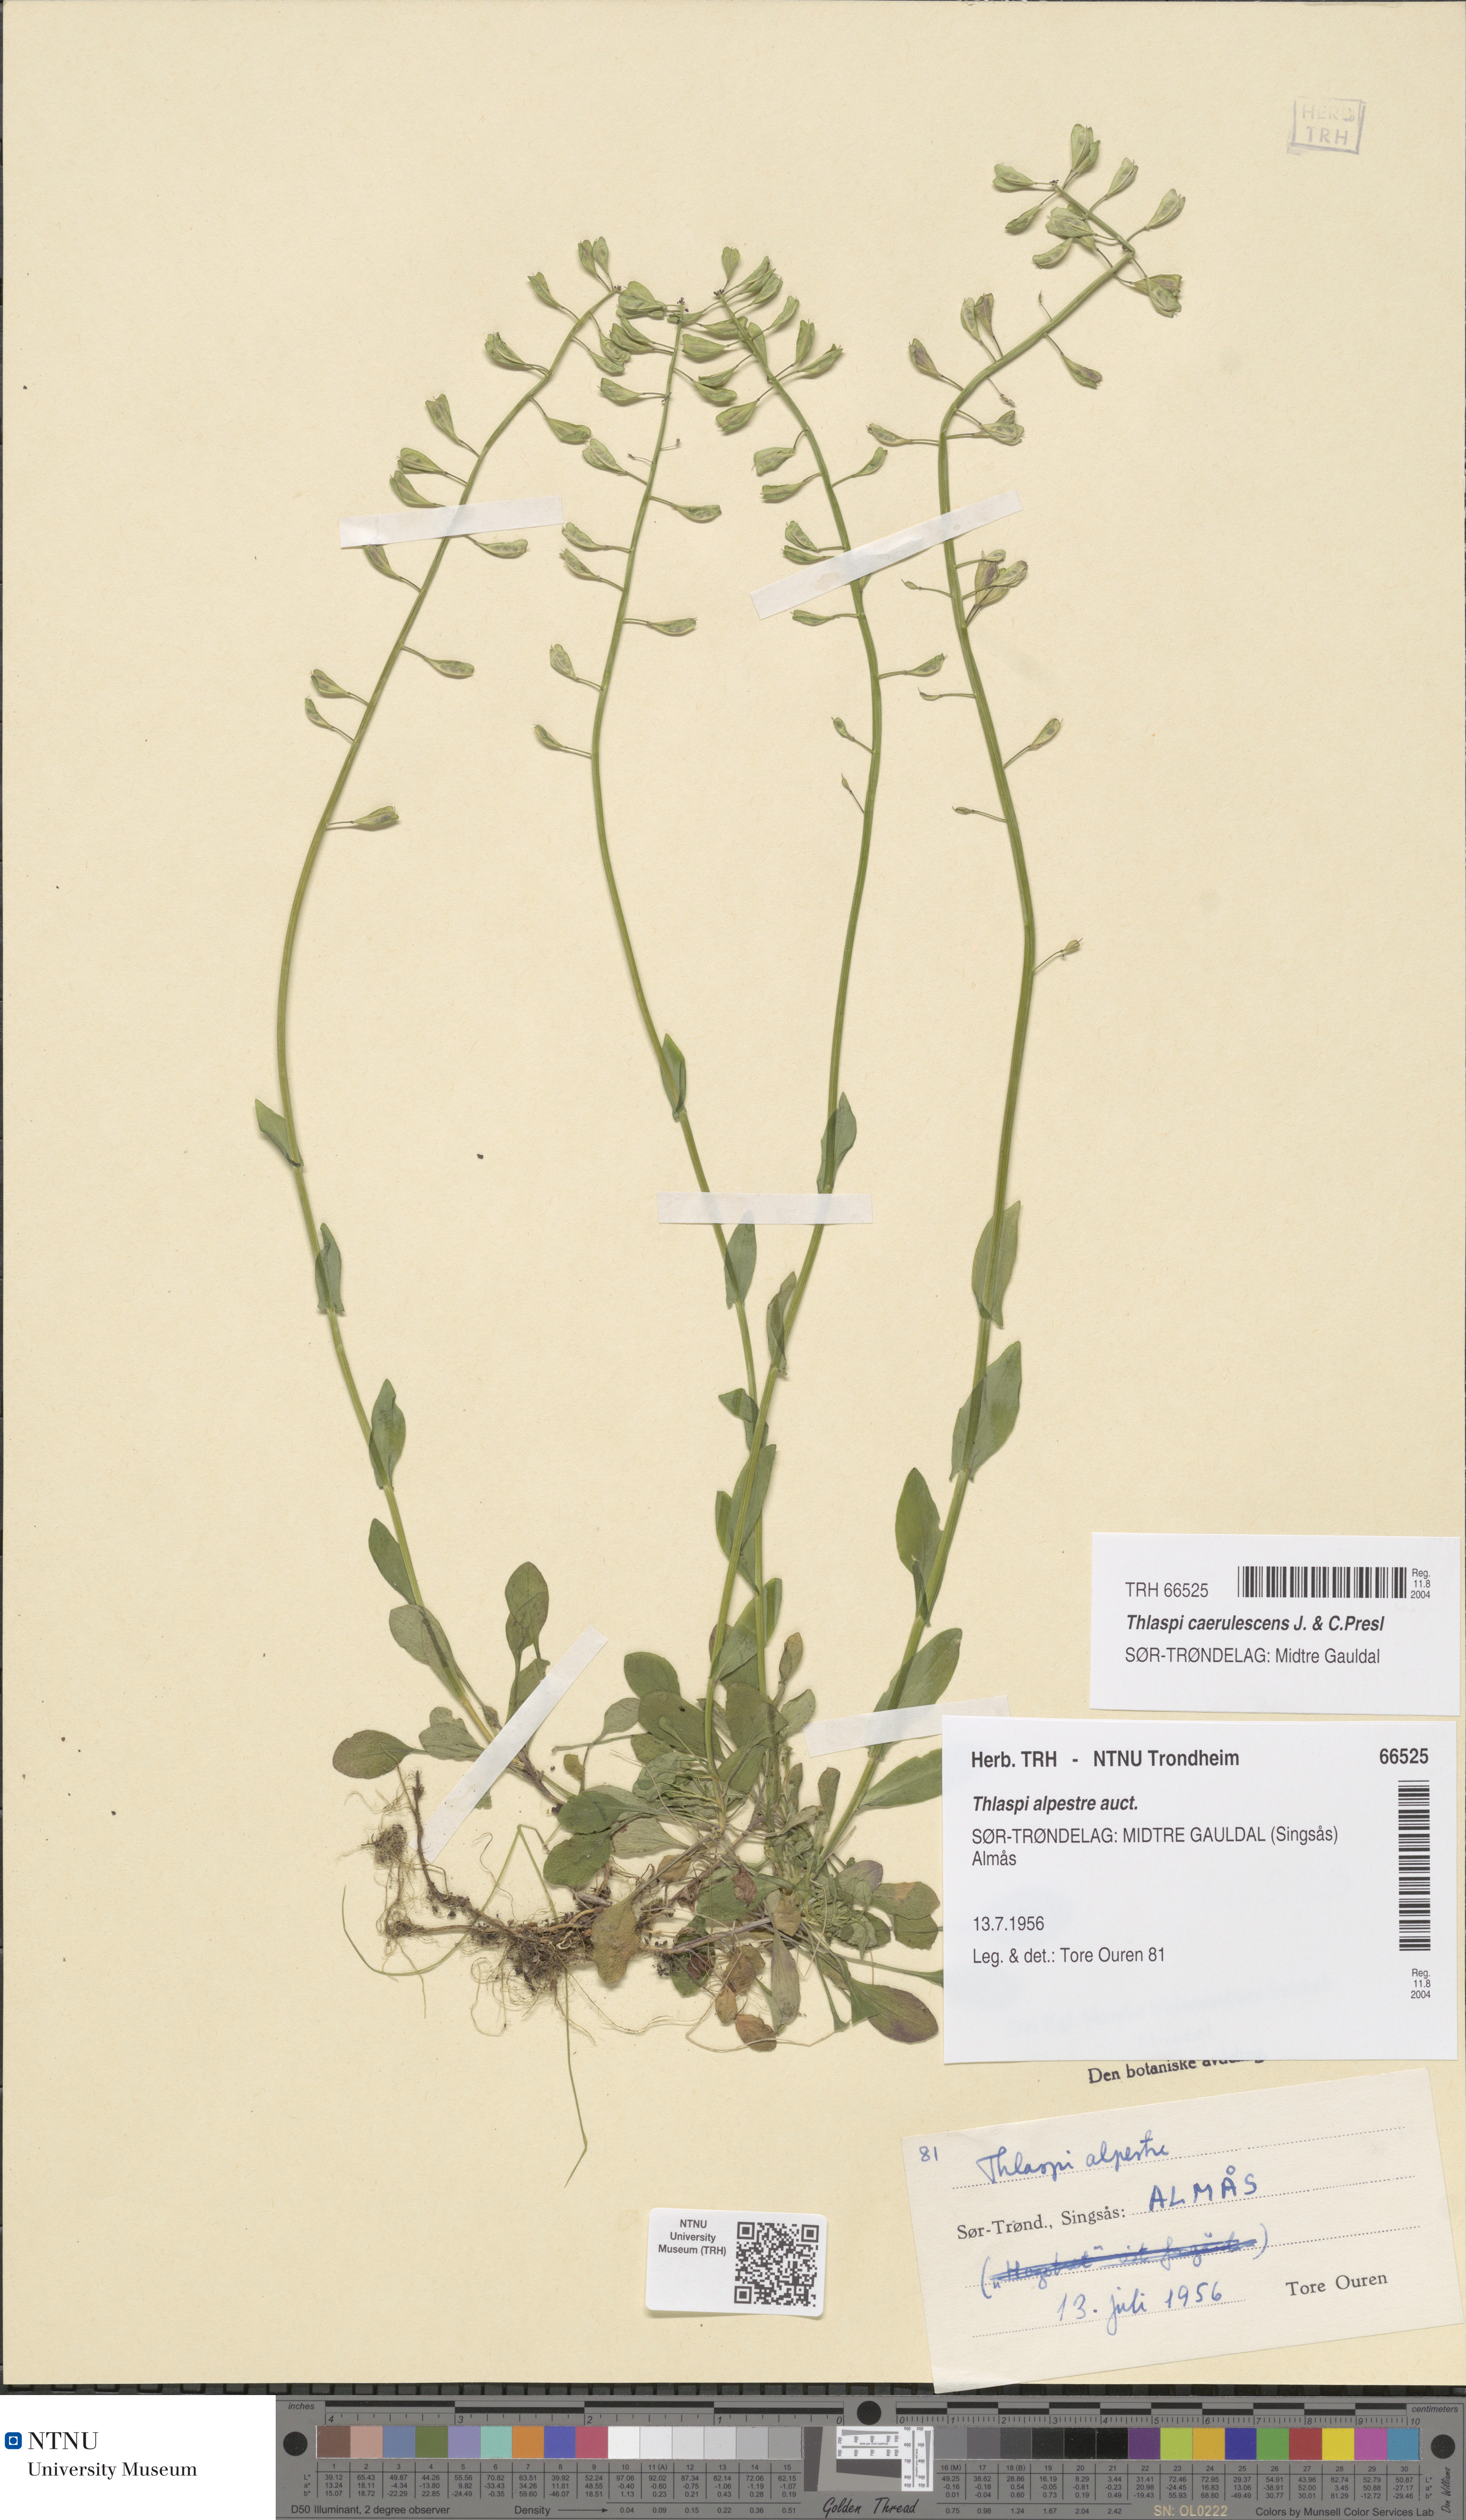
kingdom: Plantae
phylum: Tracheophyta
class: Magnoliopsida
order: Brassicales
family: Brassicaceae
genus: Noccaea
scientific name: Noccaea caerulescens
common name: Alpine pennycress
